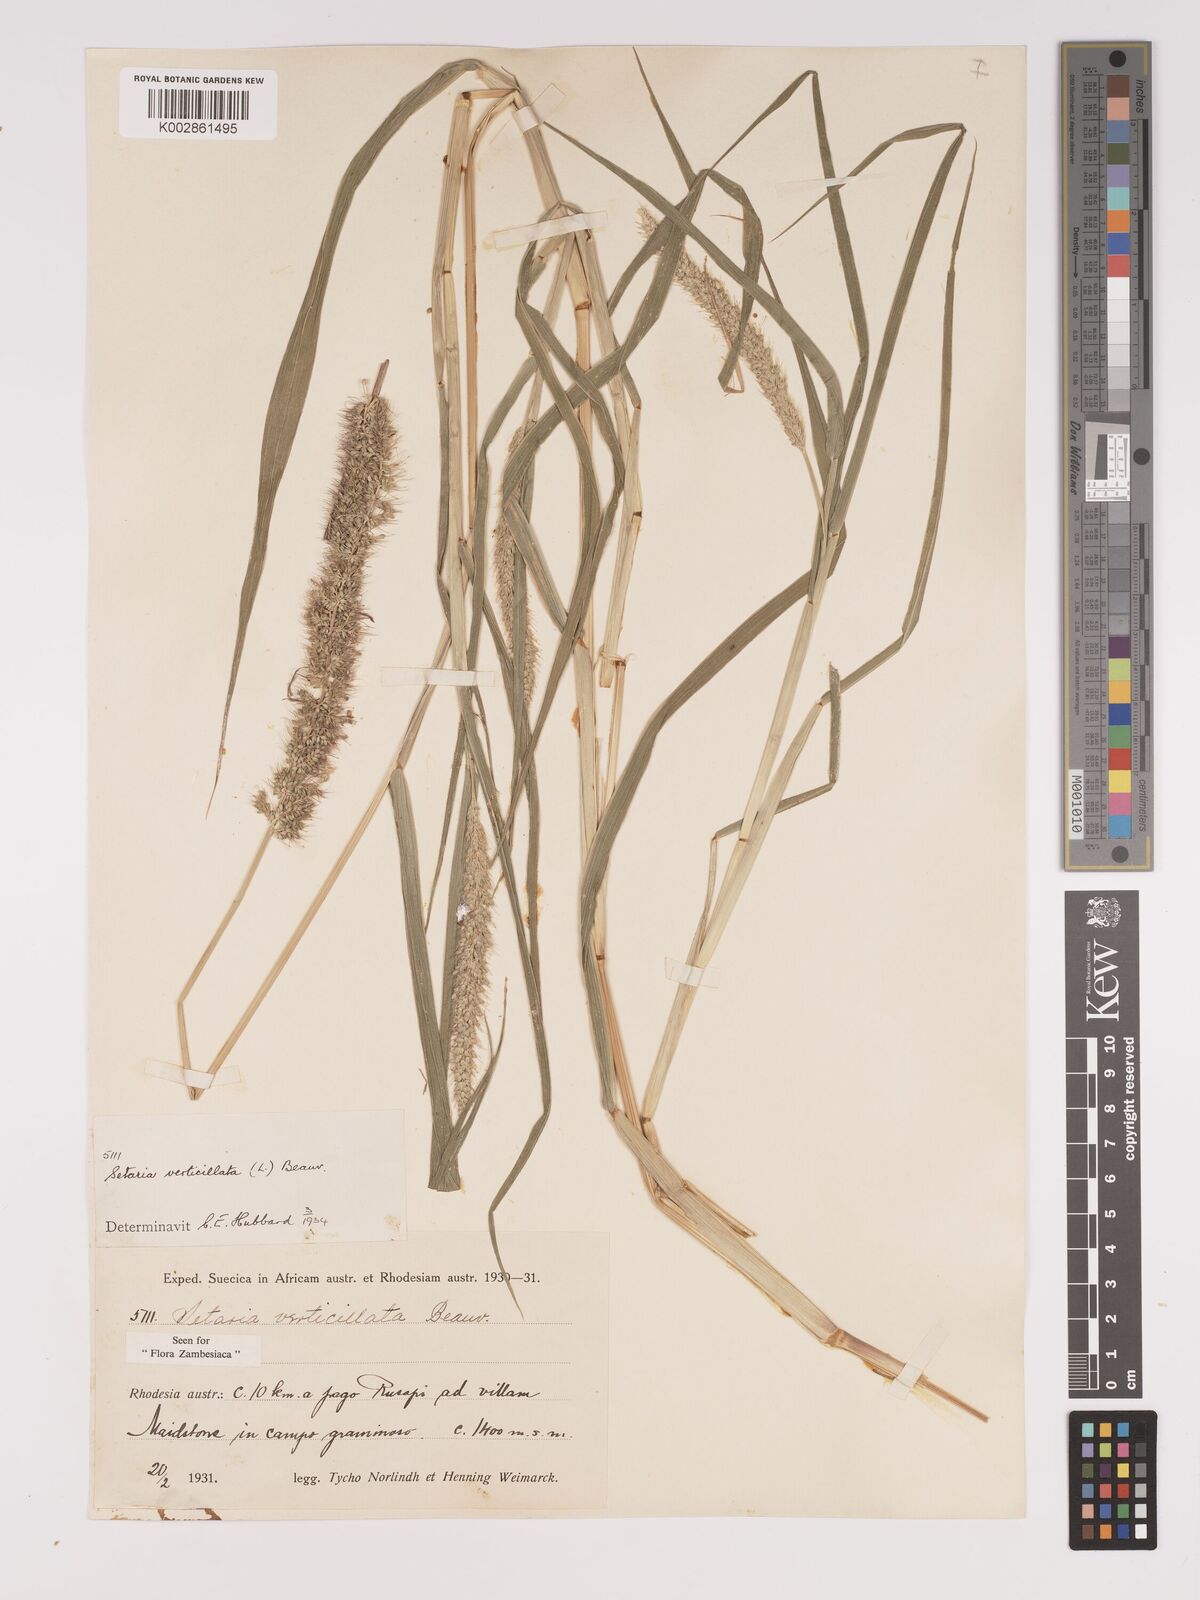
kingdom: Plantae
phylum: Tracheophyta
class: Liliopsida
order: Poales
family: Poaceae
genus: Setaria
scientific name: Setaria verticillata
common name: Hooked bristlegrass
